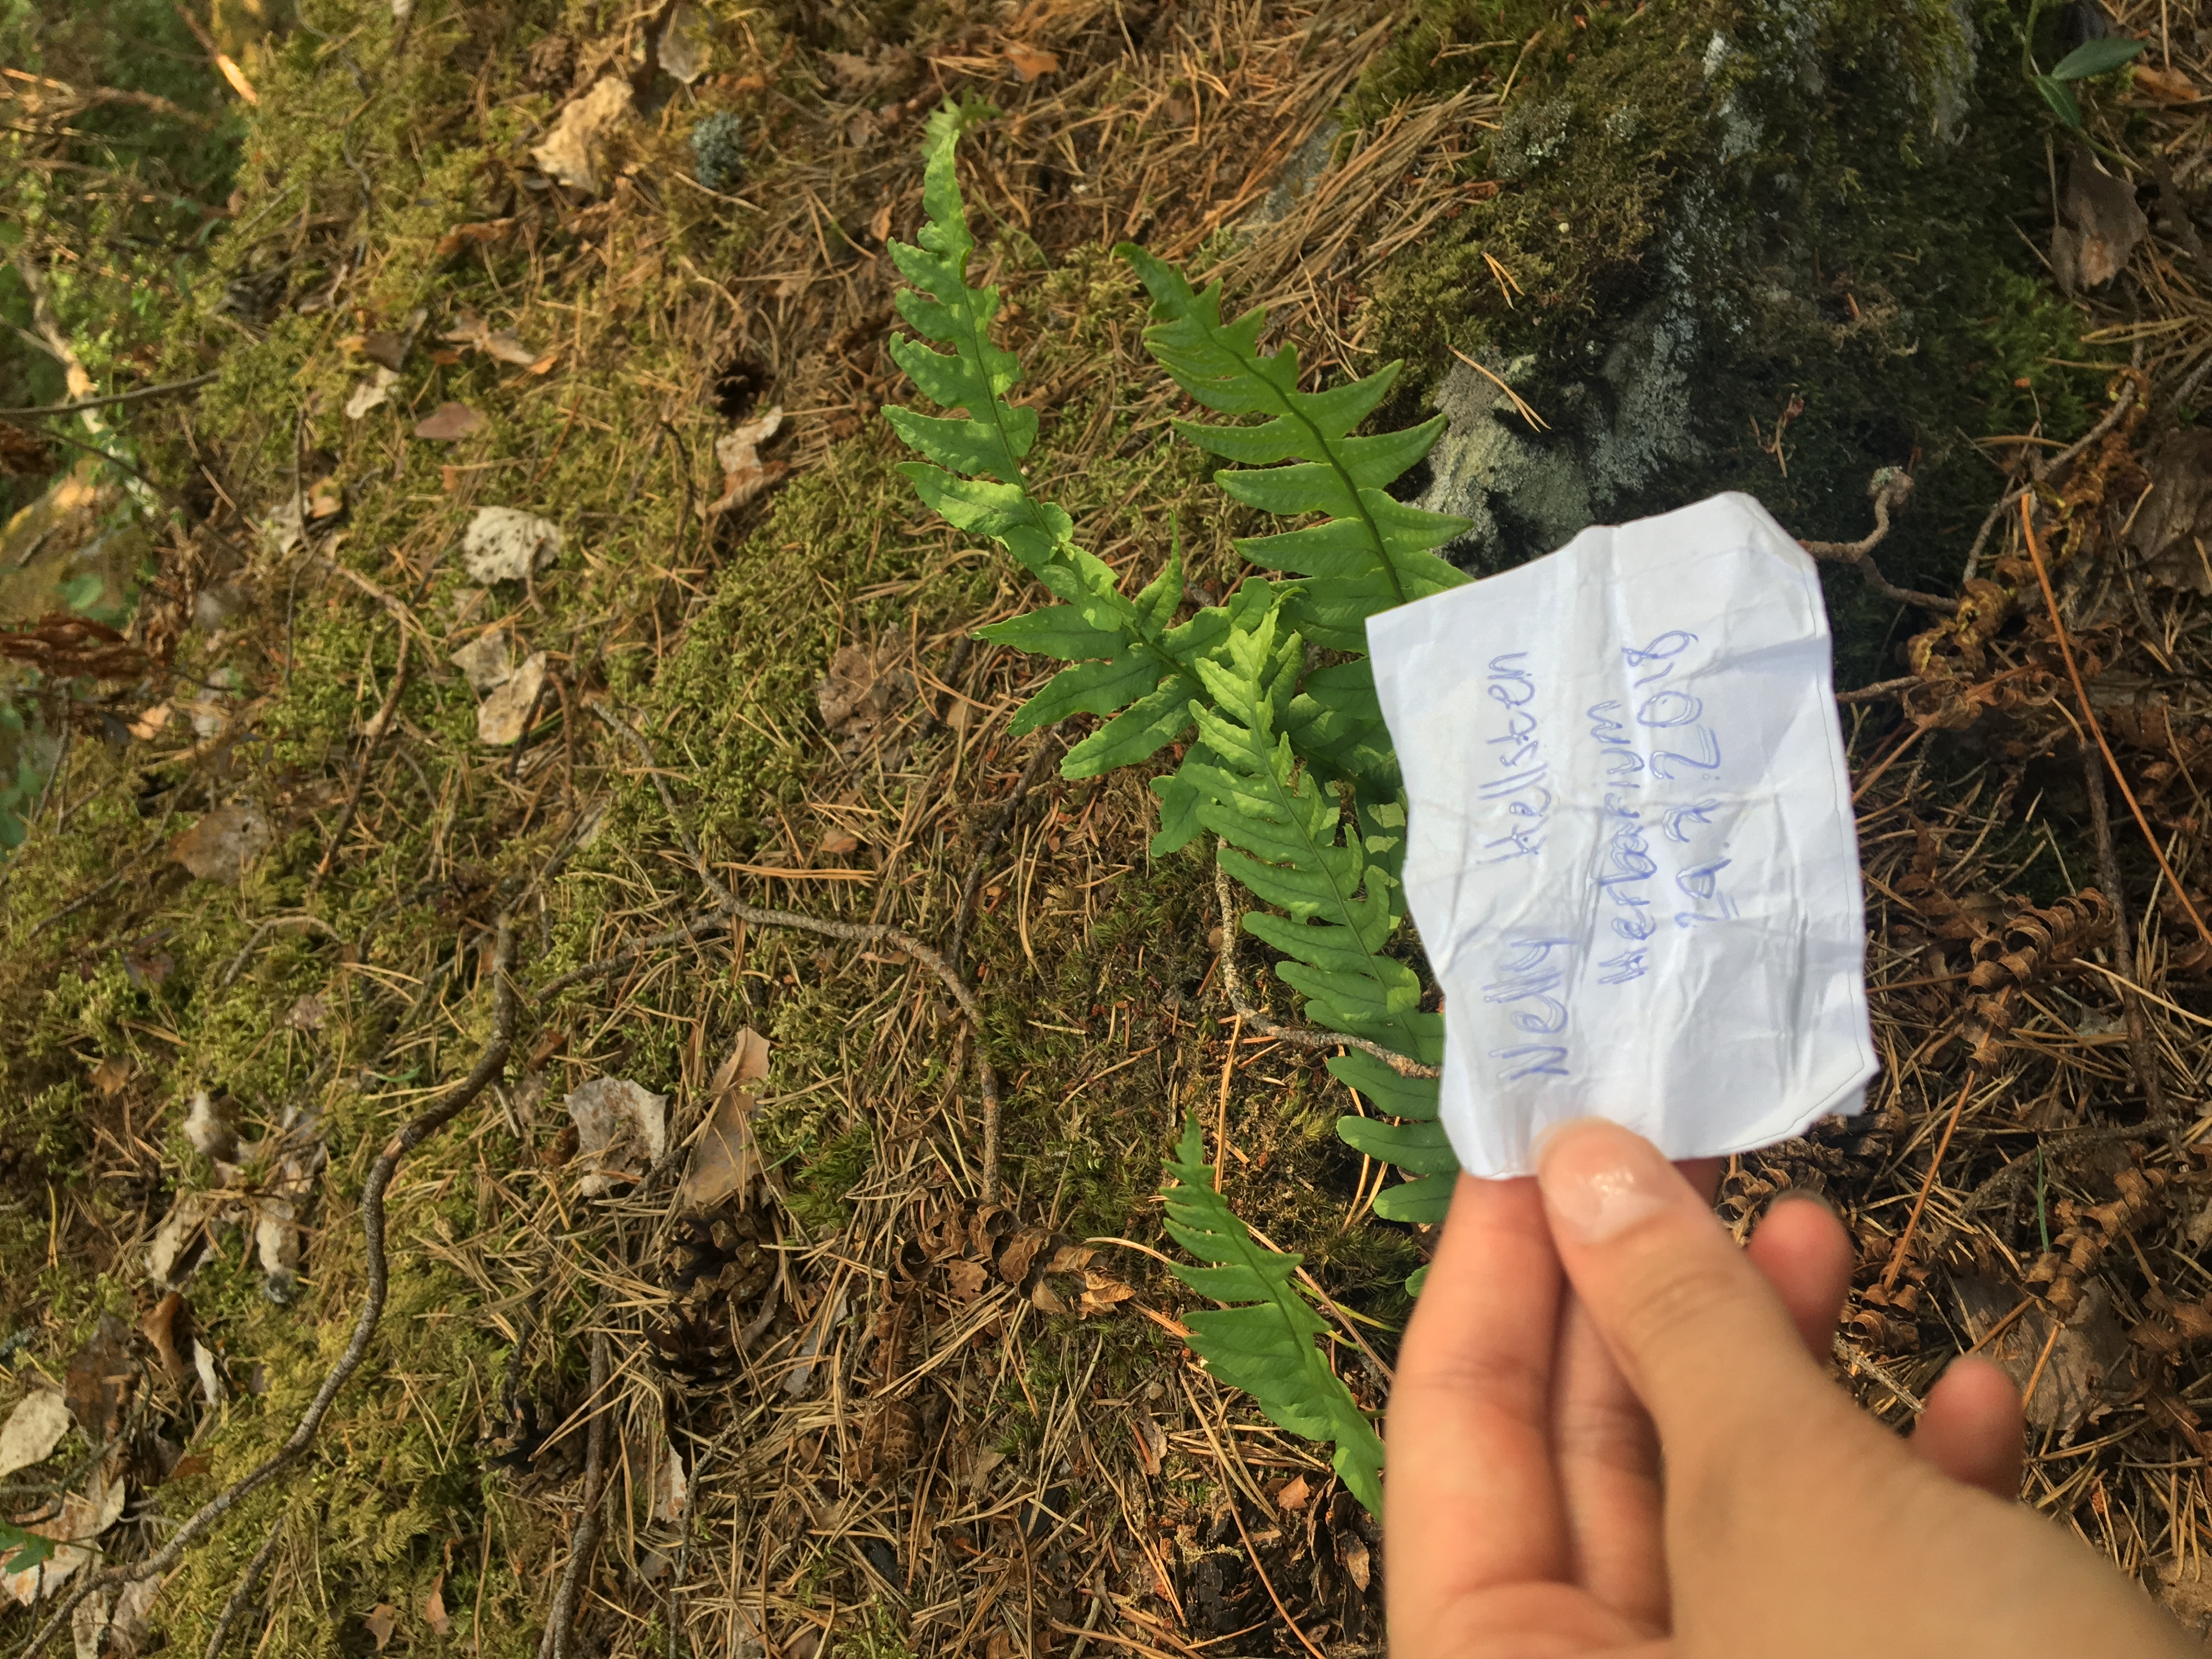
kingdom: Plantae
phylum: Tracheophyta
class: Polypodiopsida
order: Polypodiales
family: Polypodiaceae
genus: Polypodium
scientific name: Polypodium vulgare
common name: Common polypody
